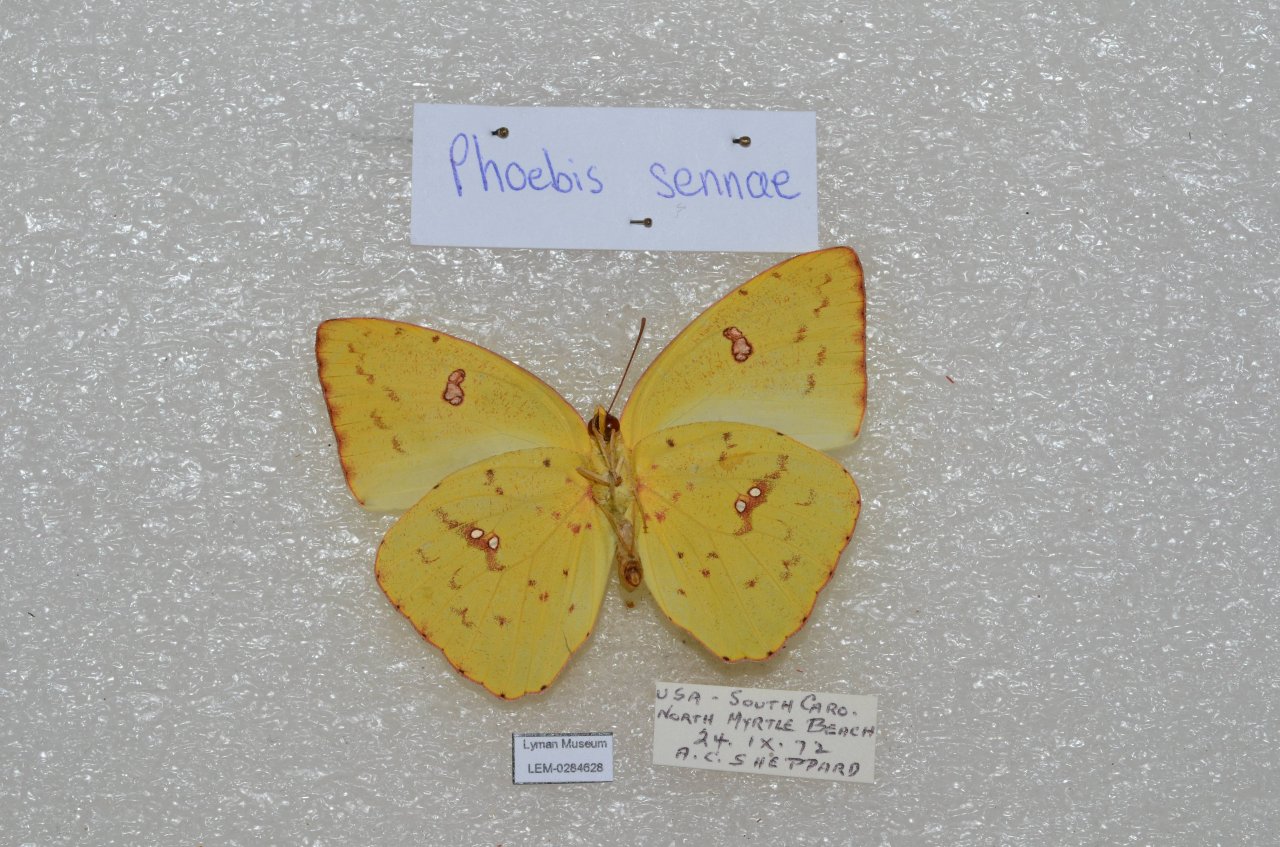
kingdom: Animalia
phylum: Arthropoda
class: Insecta
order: Lepidoptera
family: Pieridae
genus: Phoebis
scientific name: Phoebis sennae
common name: Cloudless Sulphur
